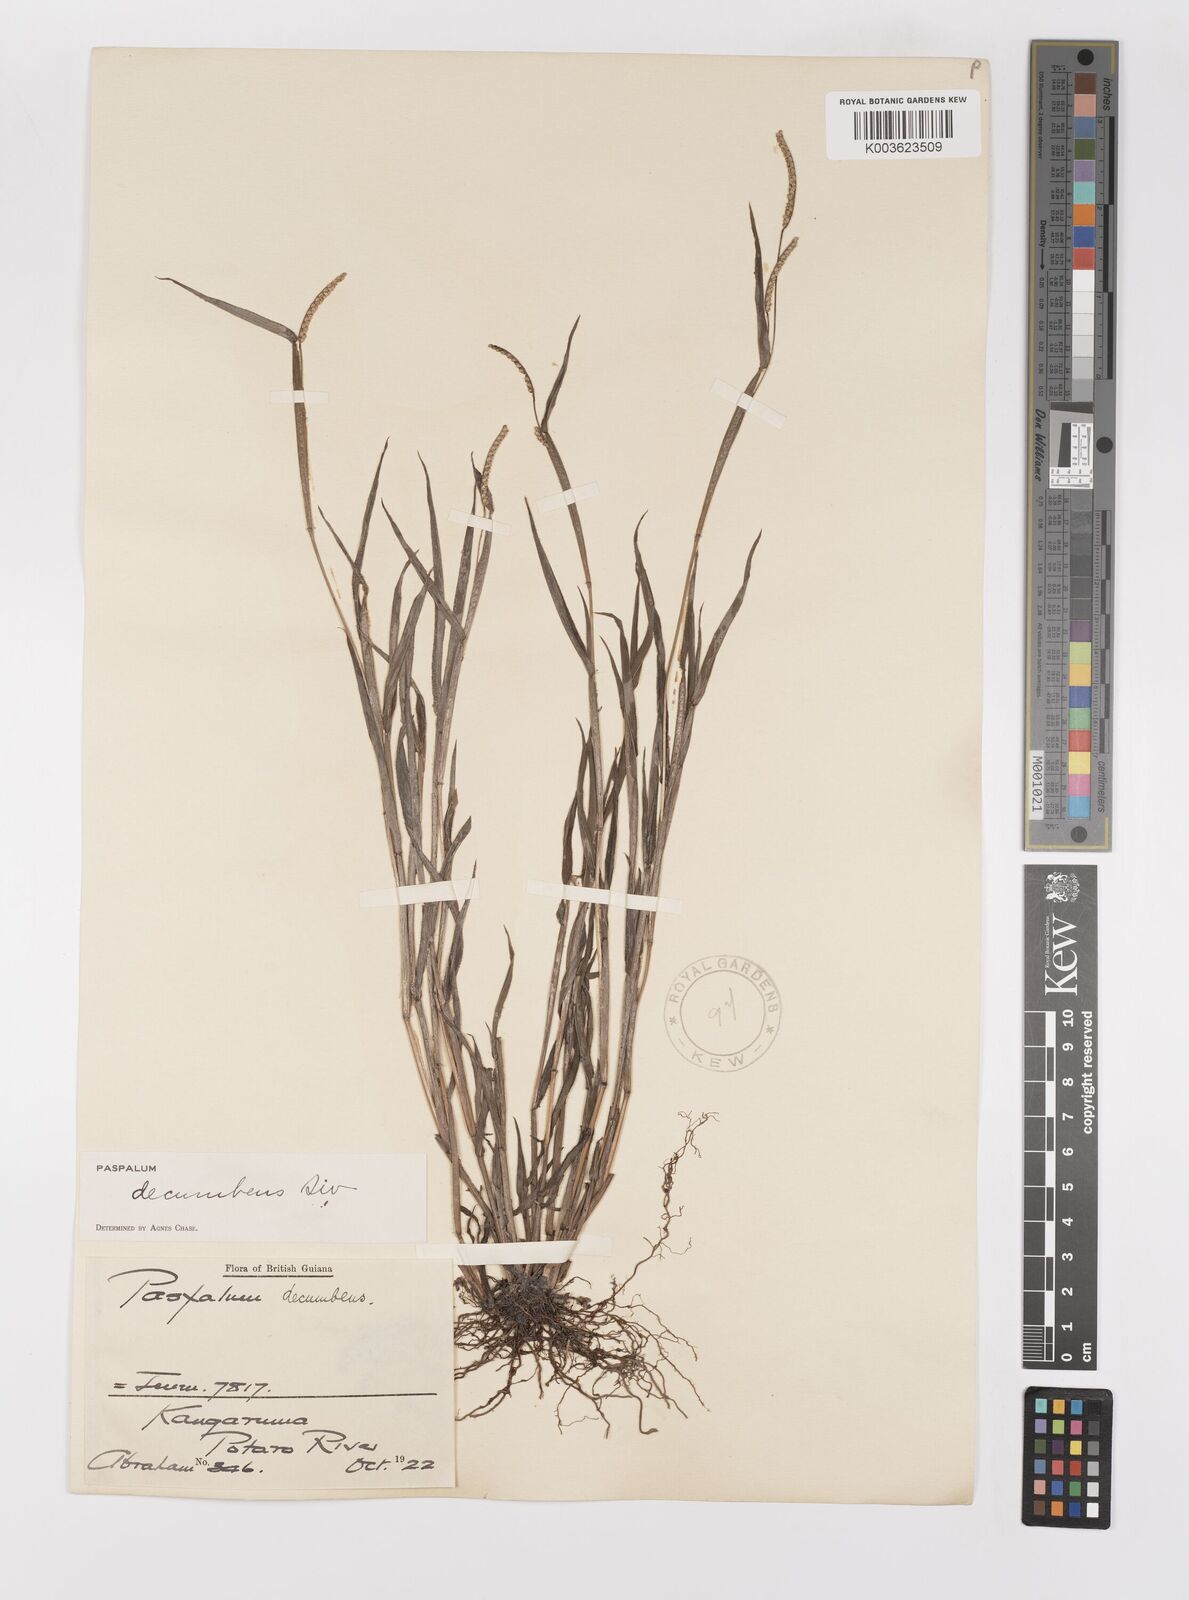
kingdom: Plantae
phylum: Tracheophyta
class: Liliopsida
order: Poales
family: Poaceae
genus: Paspalum
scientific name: Paspalum decumbens
